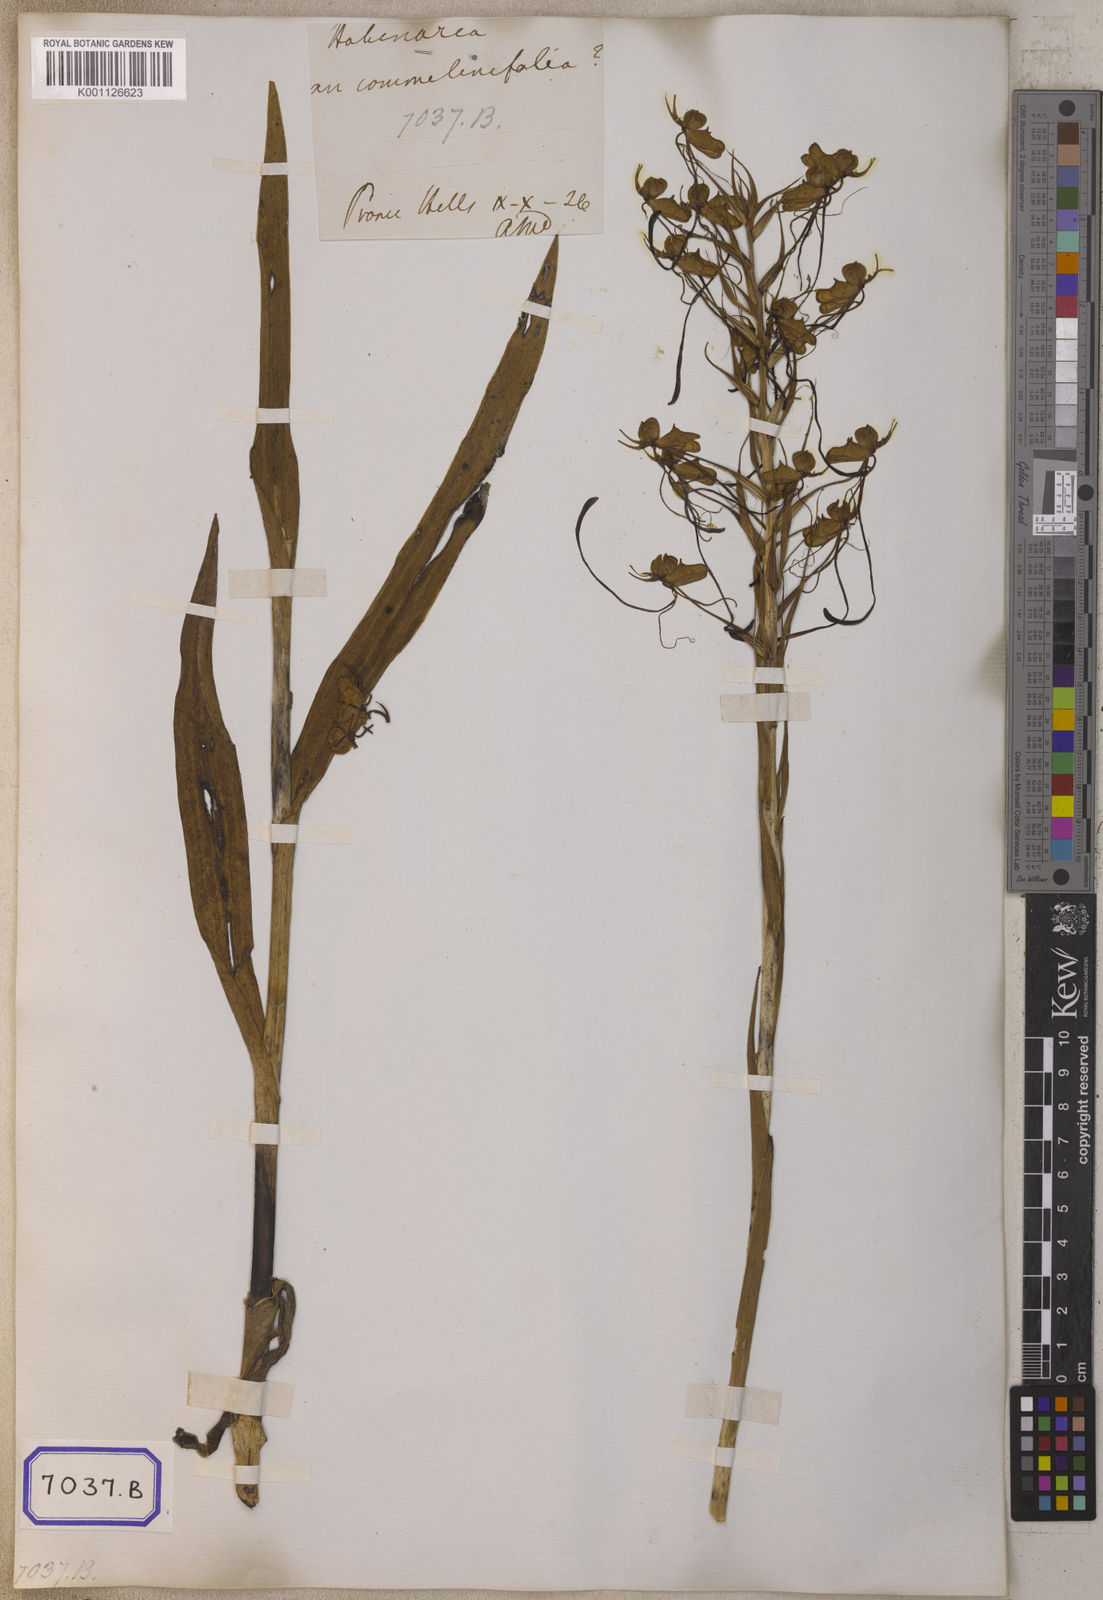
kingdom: Plantae
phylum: Tracheophyta
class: Liliopsida
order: Asparagales
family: Orchidaceae
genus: Platanthera
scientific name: Platanthera
